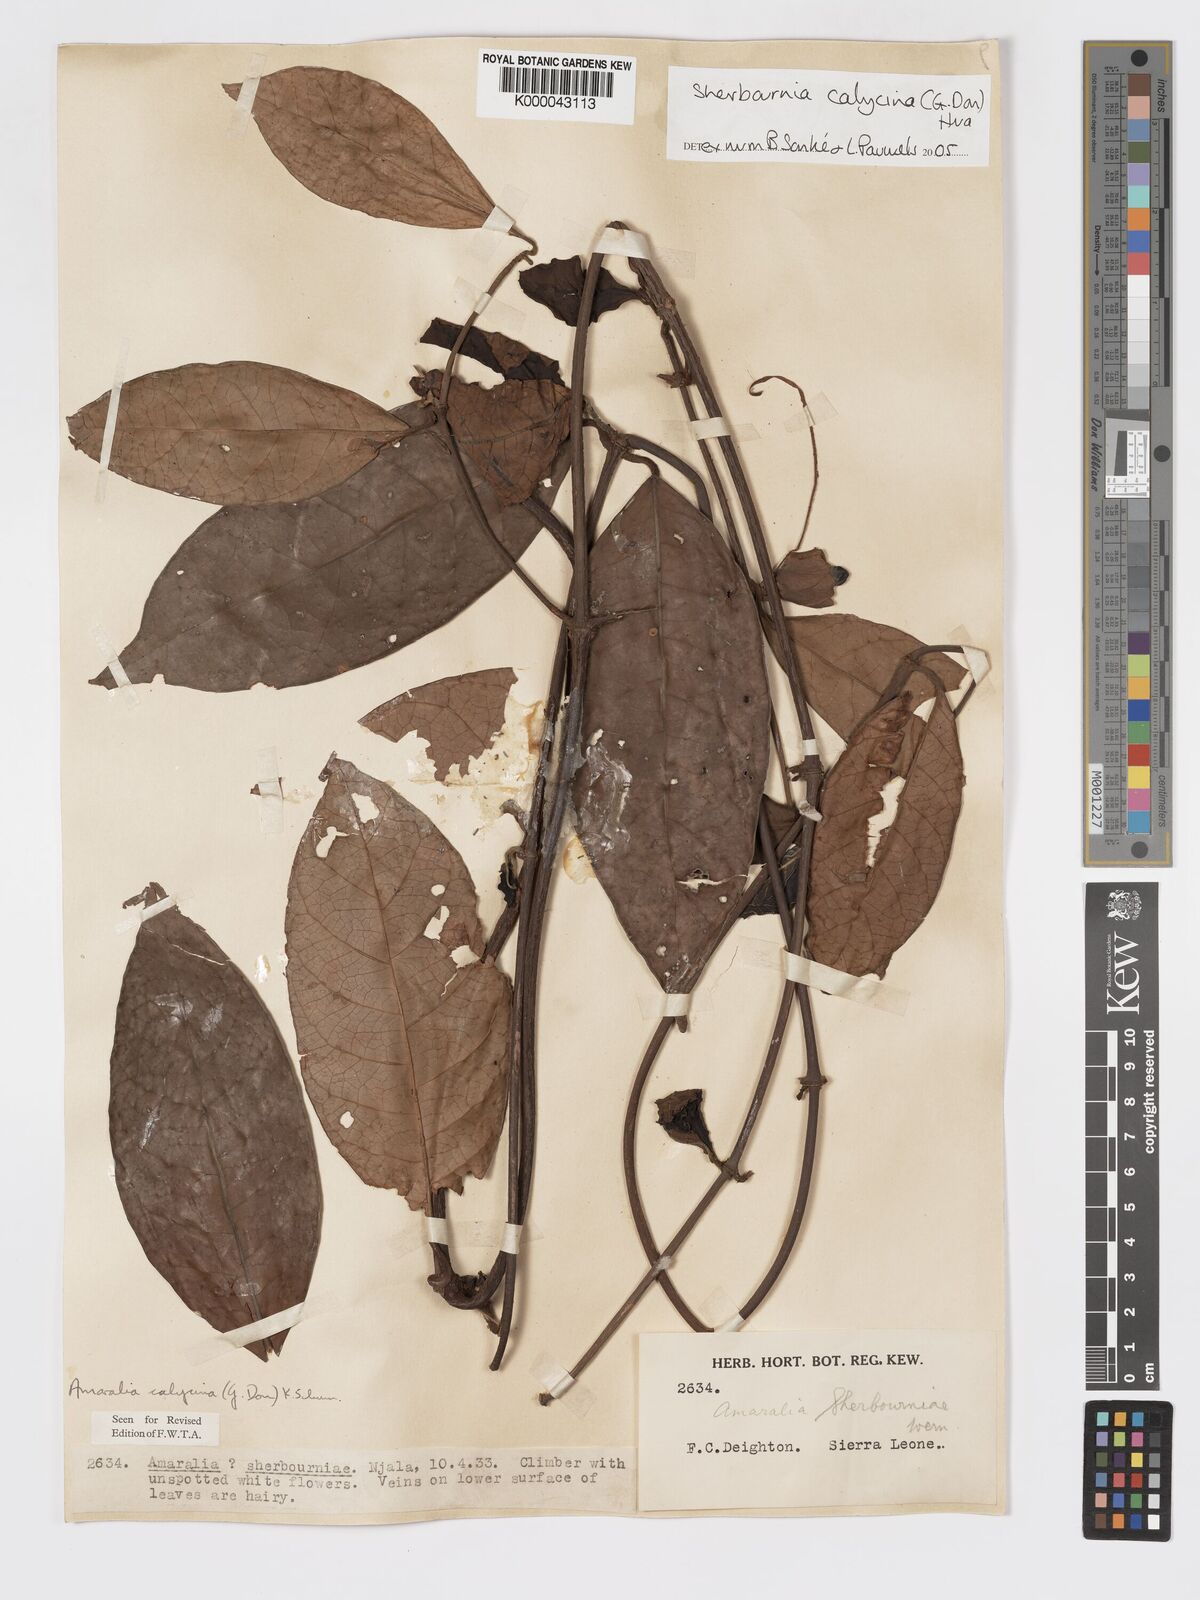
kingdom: Plantae
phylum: Tracheophyta
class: Magnoliopsida
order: Gentianales
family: Rubiaceae
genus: Sherbournia
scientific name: Sherbournia calycina
